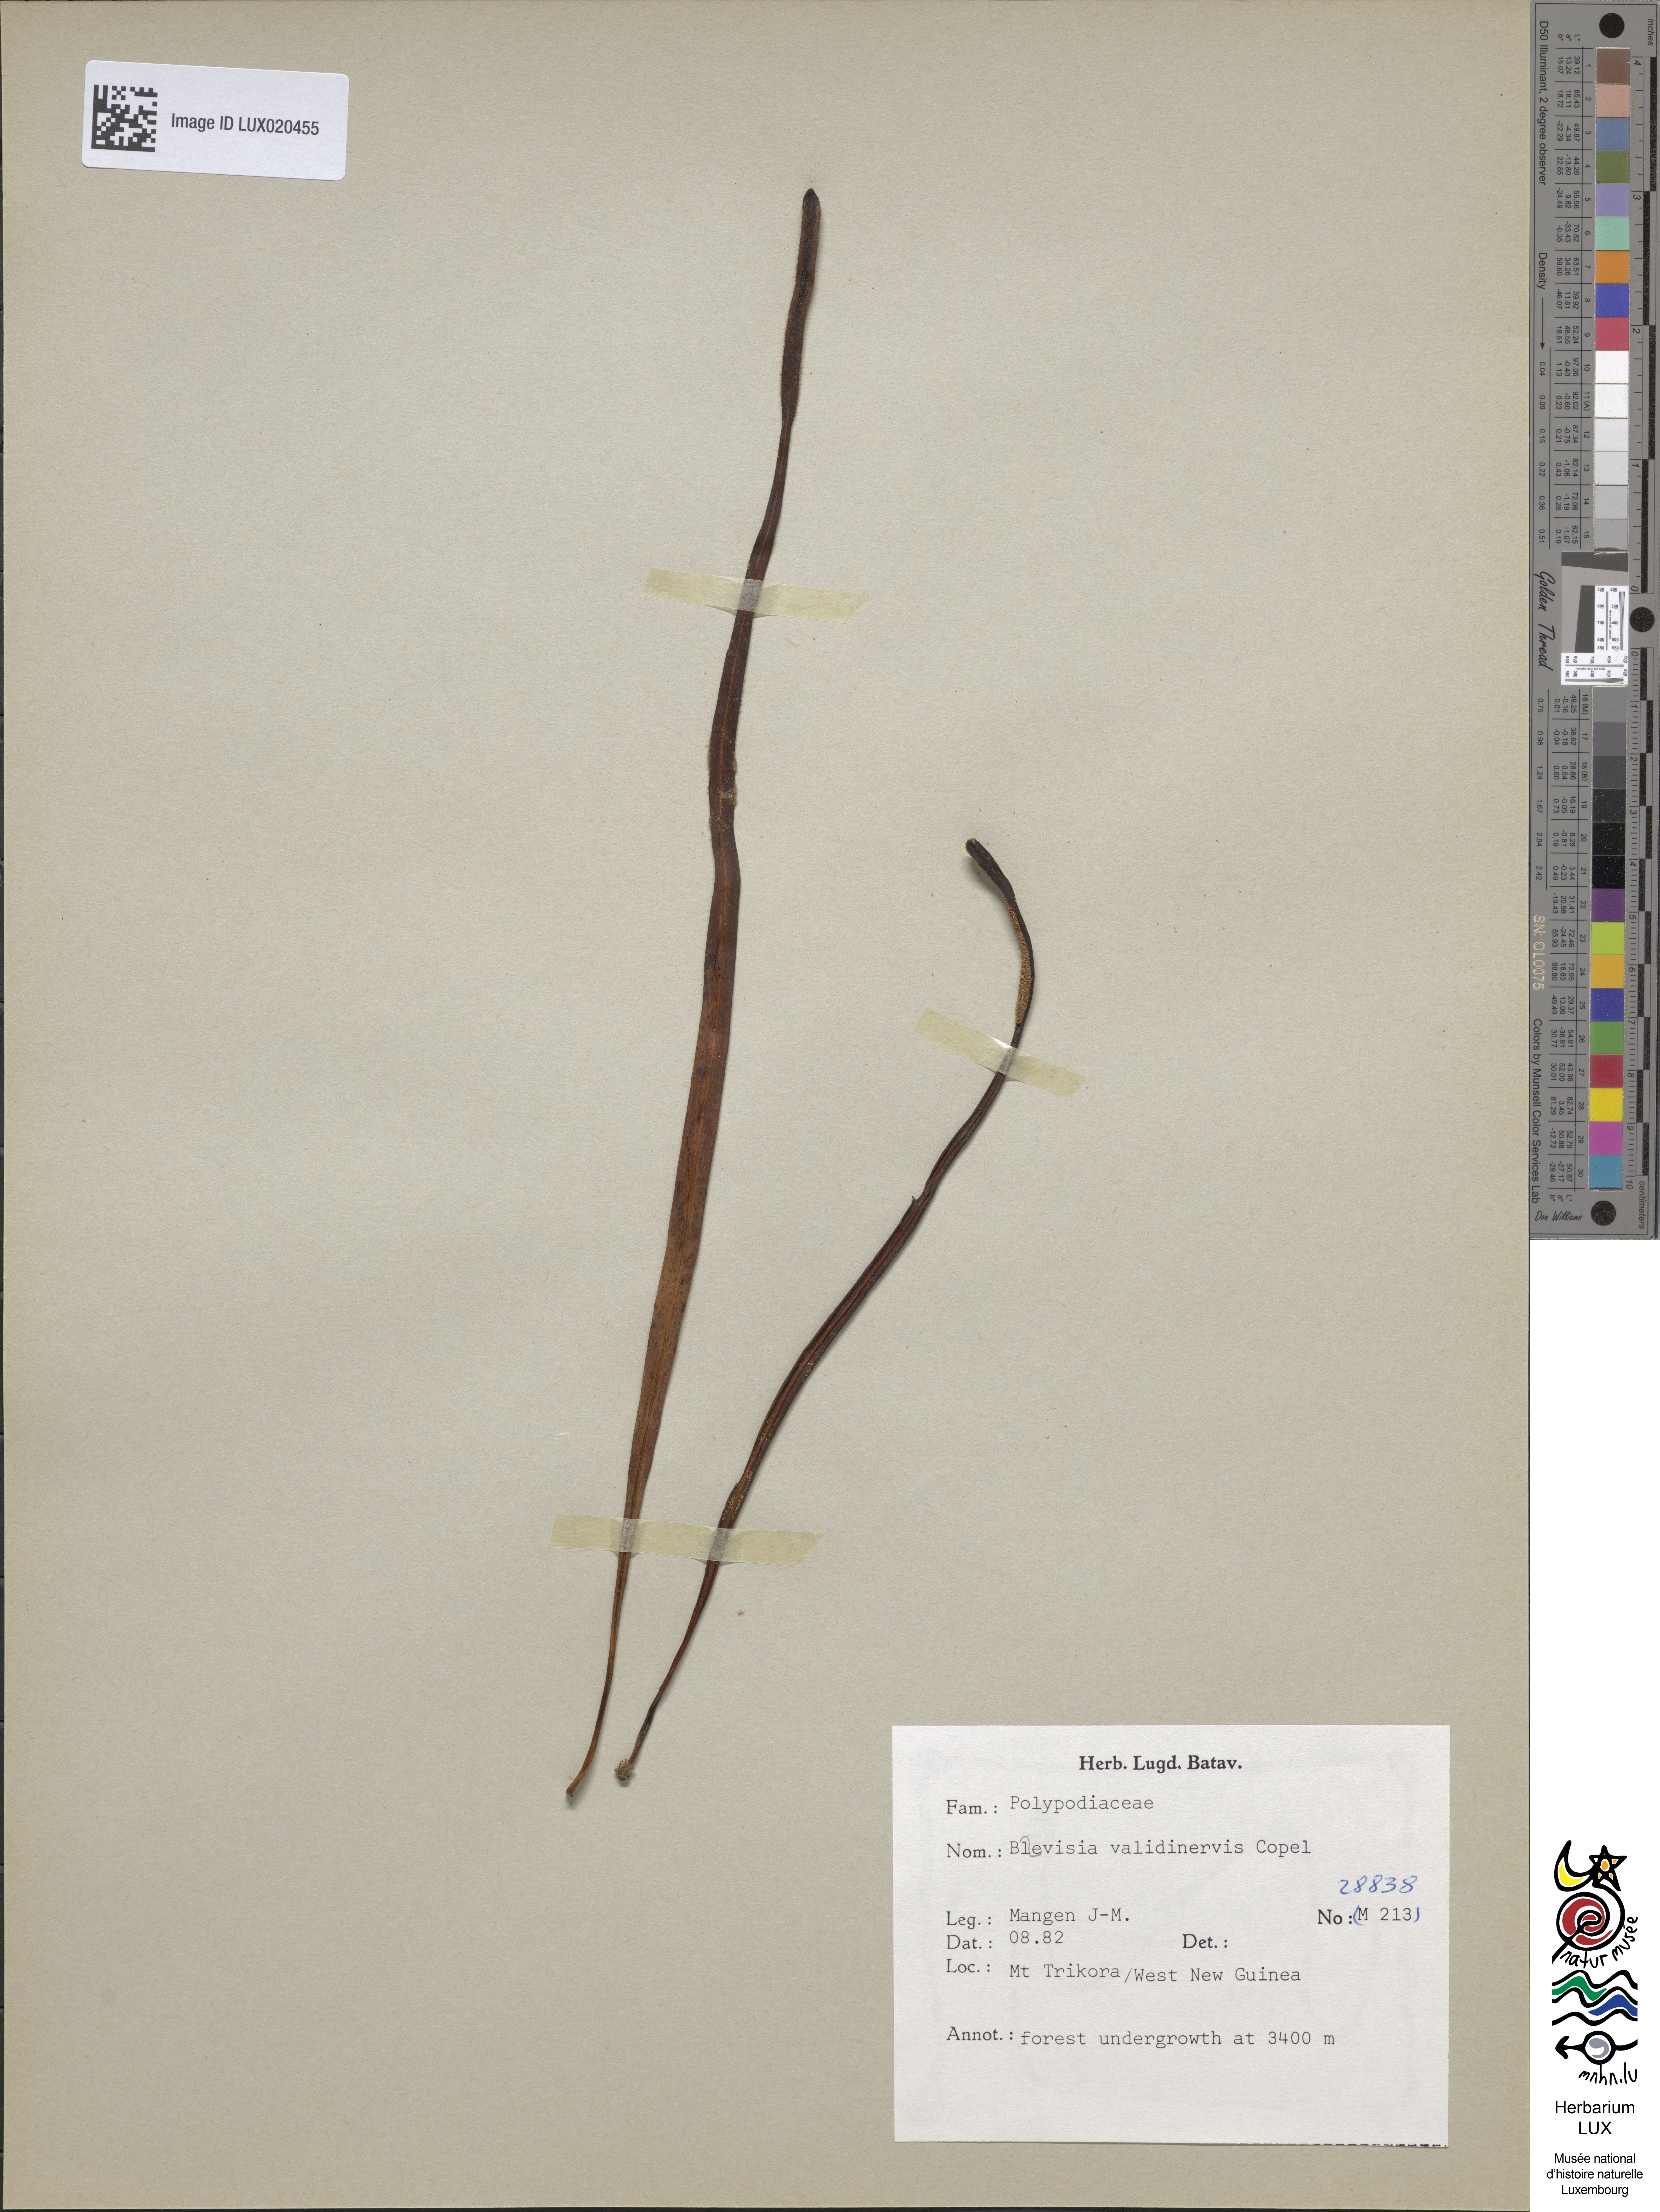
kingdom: Plantae
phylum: Tracheophyta
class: Polypodiopsida
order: Polypodiales
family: Polypodiaceae
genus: Lepisorus
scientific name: Lepisorus validinervis
